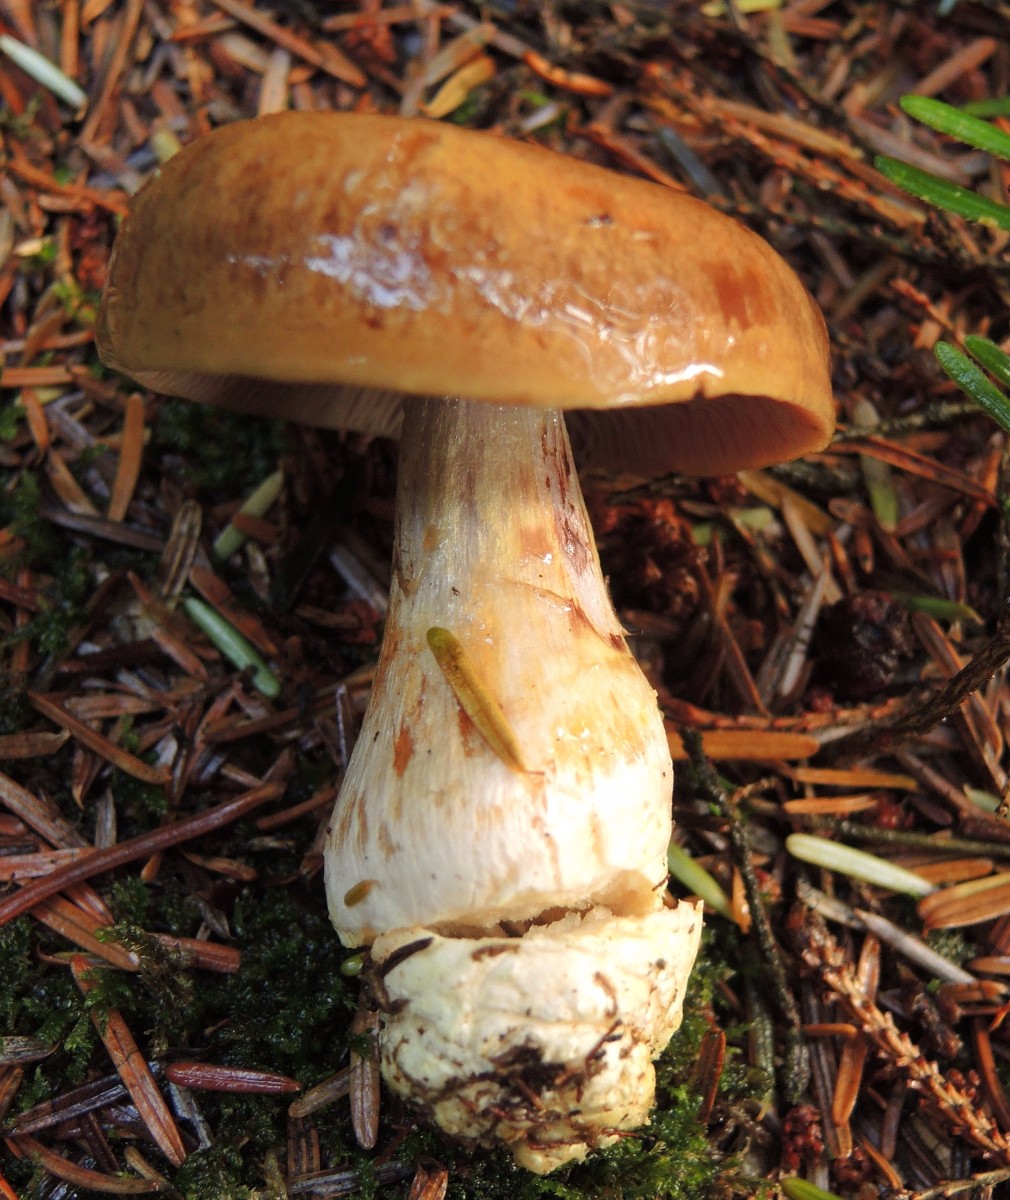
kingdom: Fungi
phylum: Basidiomycota
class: Agaricomycetes
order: Agaricales
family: Cortinariaceae
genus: Thaxterogaster
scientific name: Thaxterogaster sphagnophilus
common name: vandplettet slørhat
